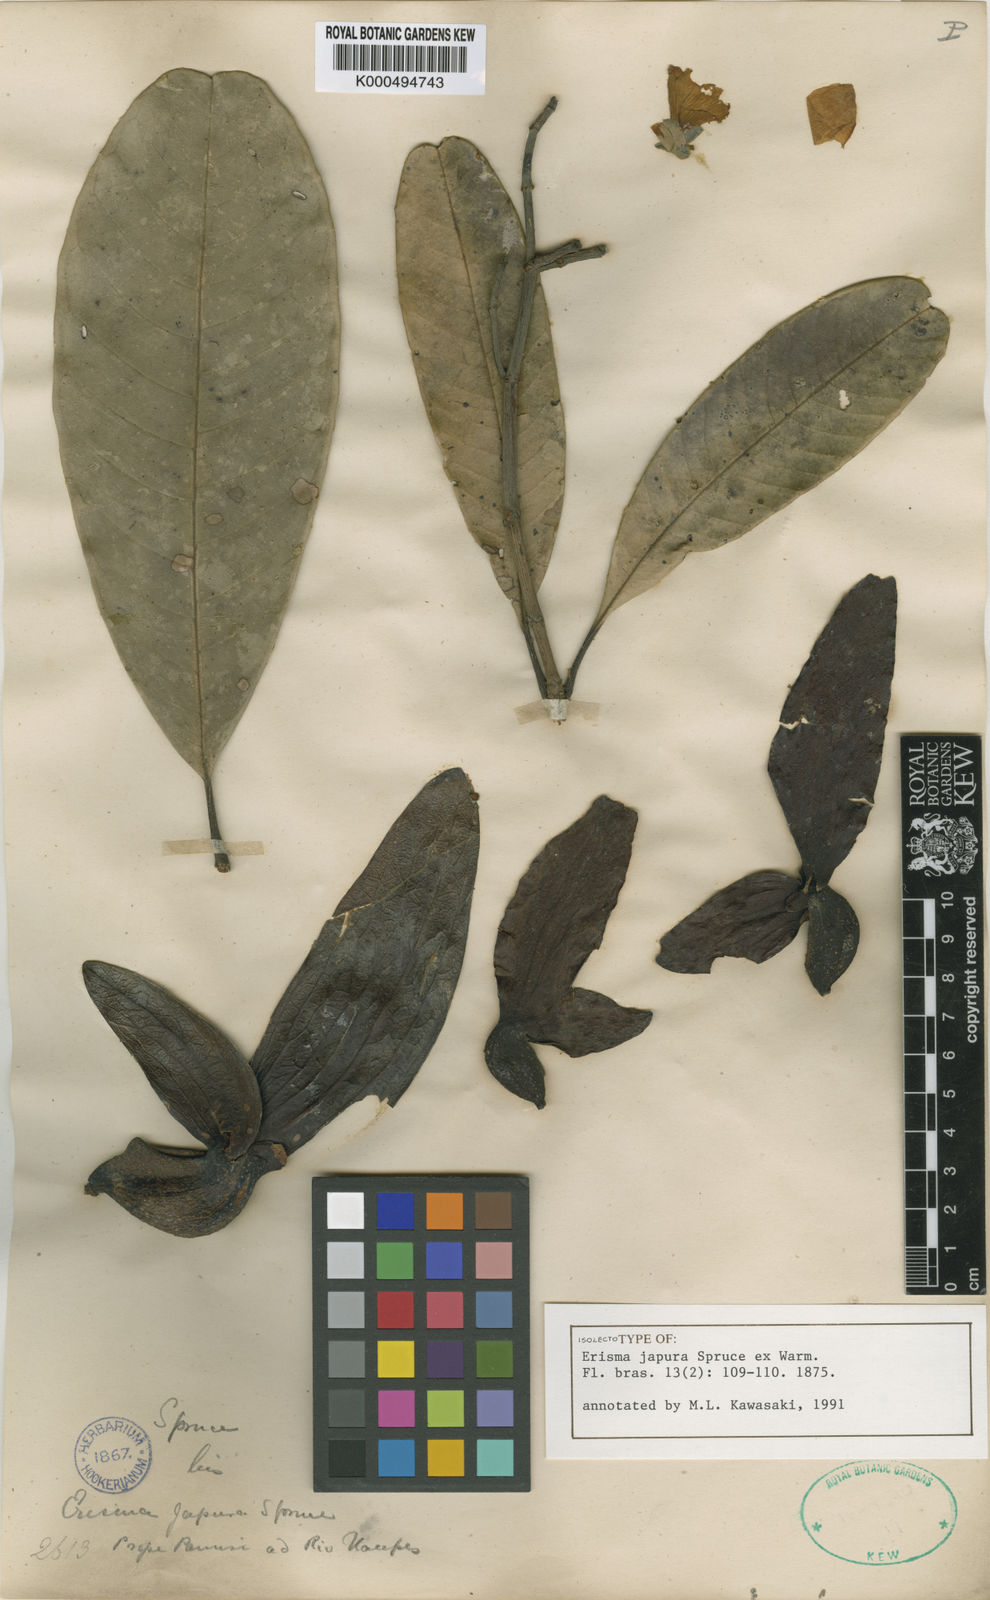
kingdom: Plantae
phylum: Tracheophyta
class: Magnoliopsida
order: Myrtales
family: Vochysiaceae
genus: Erisma
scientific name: Erisma japura
